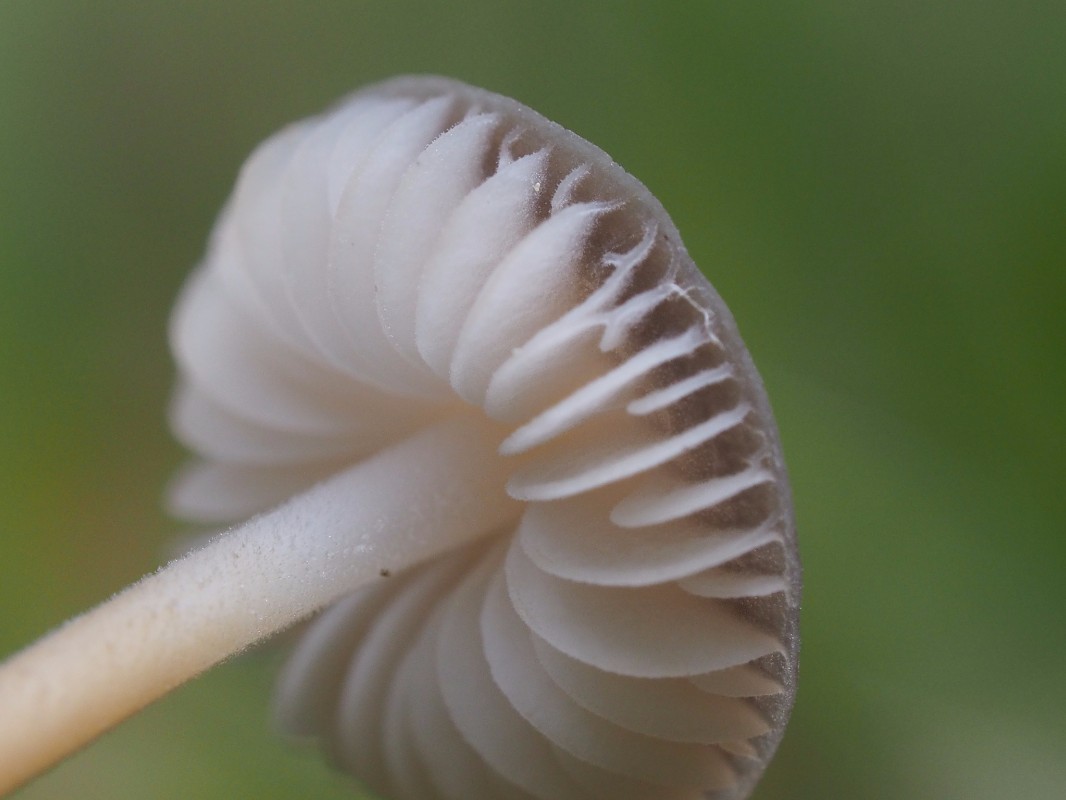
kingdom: Fungi
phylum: Basidiomycota
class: Agaricomycetes
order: Agaricales
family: Physalacriaceae
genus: Strobilurus
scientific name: Strobilurus
